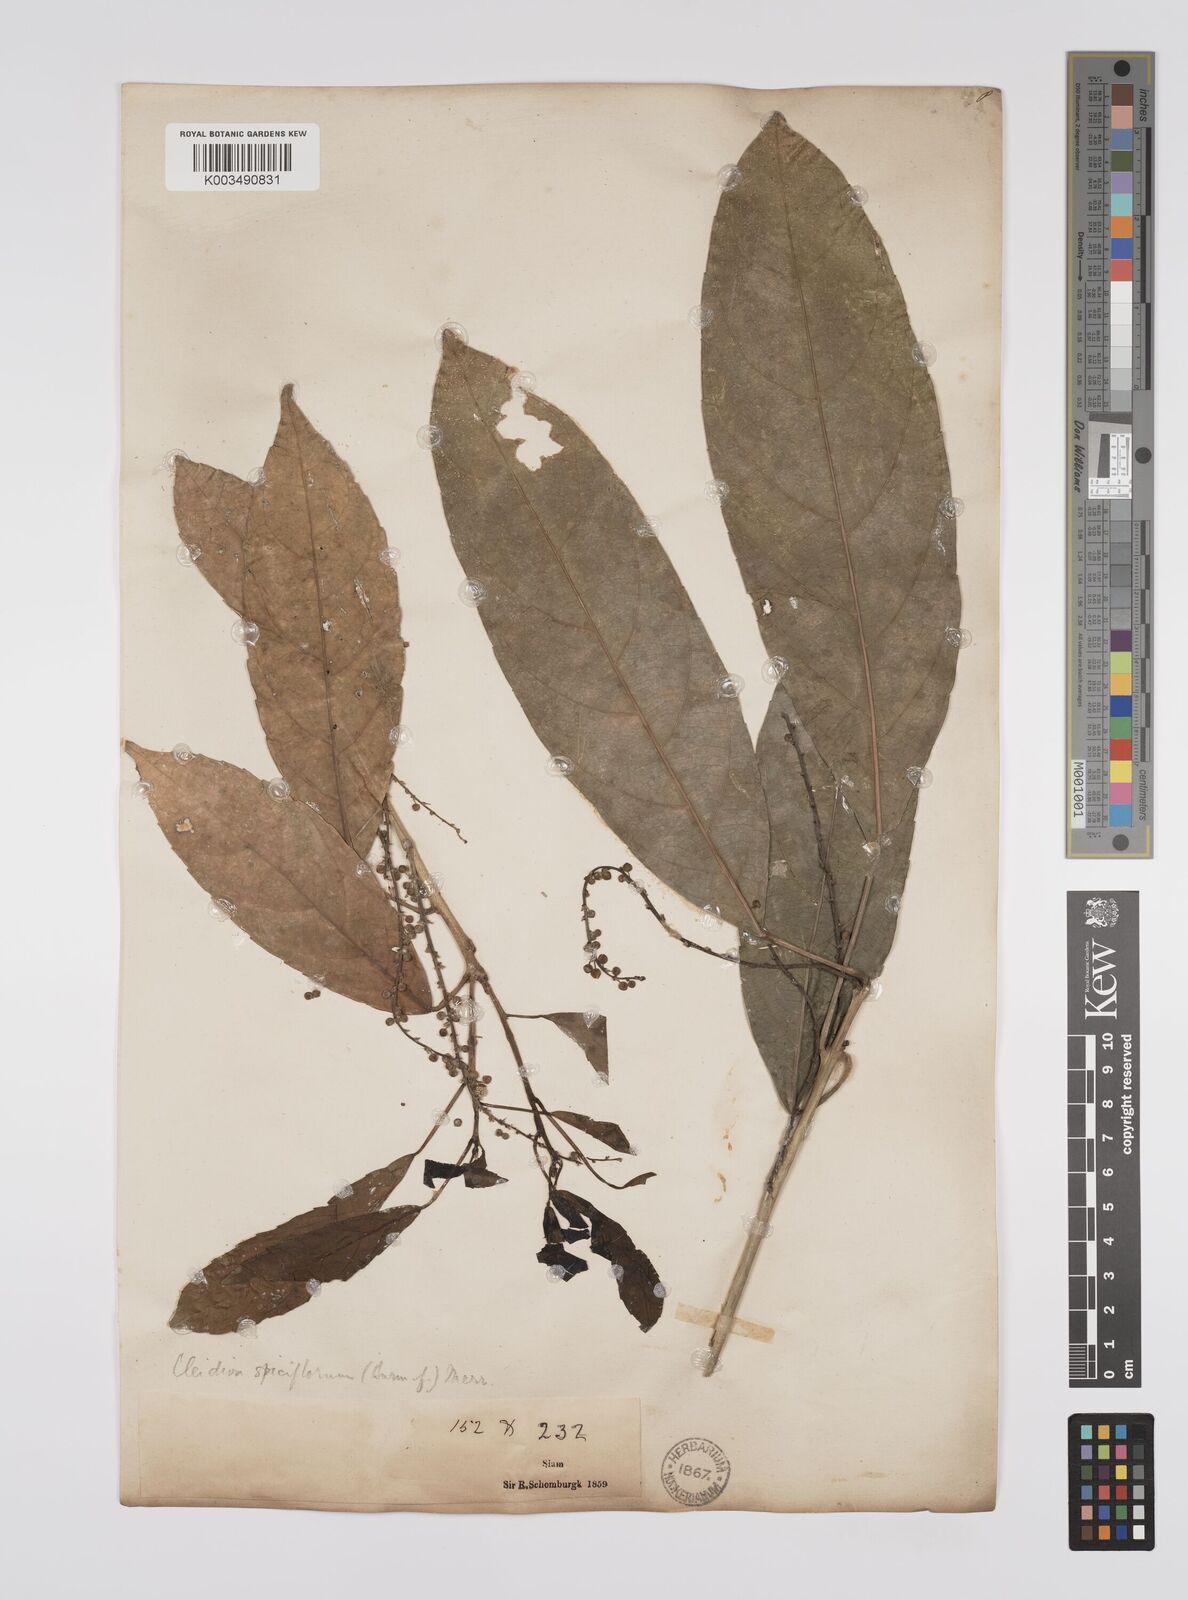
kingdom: Plantae
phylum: Tracheophyta
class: Magnoliopsida
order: Malpighiales
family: Euphorbiaceae
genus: Acalypha
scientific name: Acalypha spiciflora
